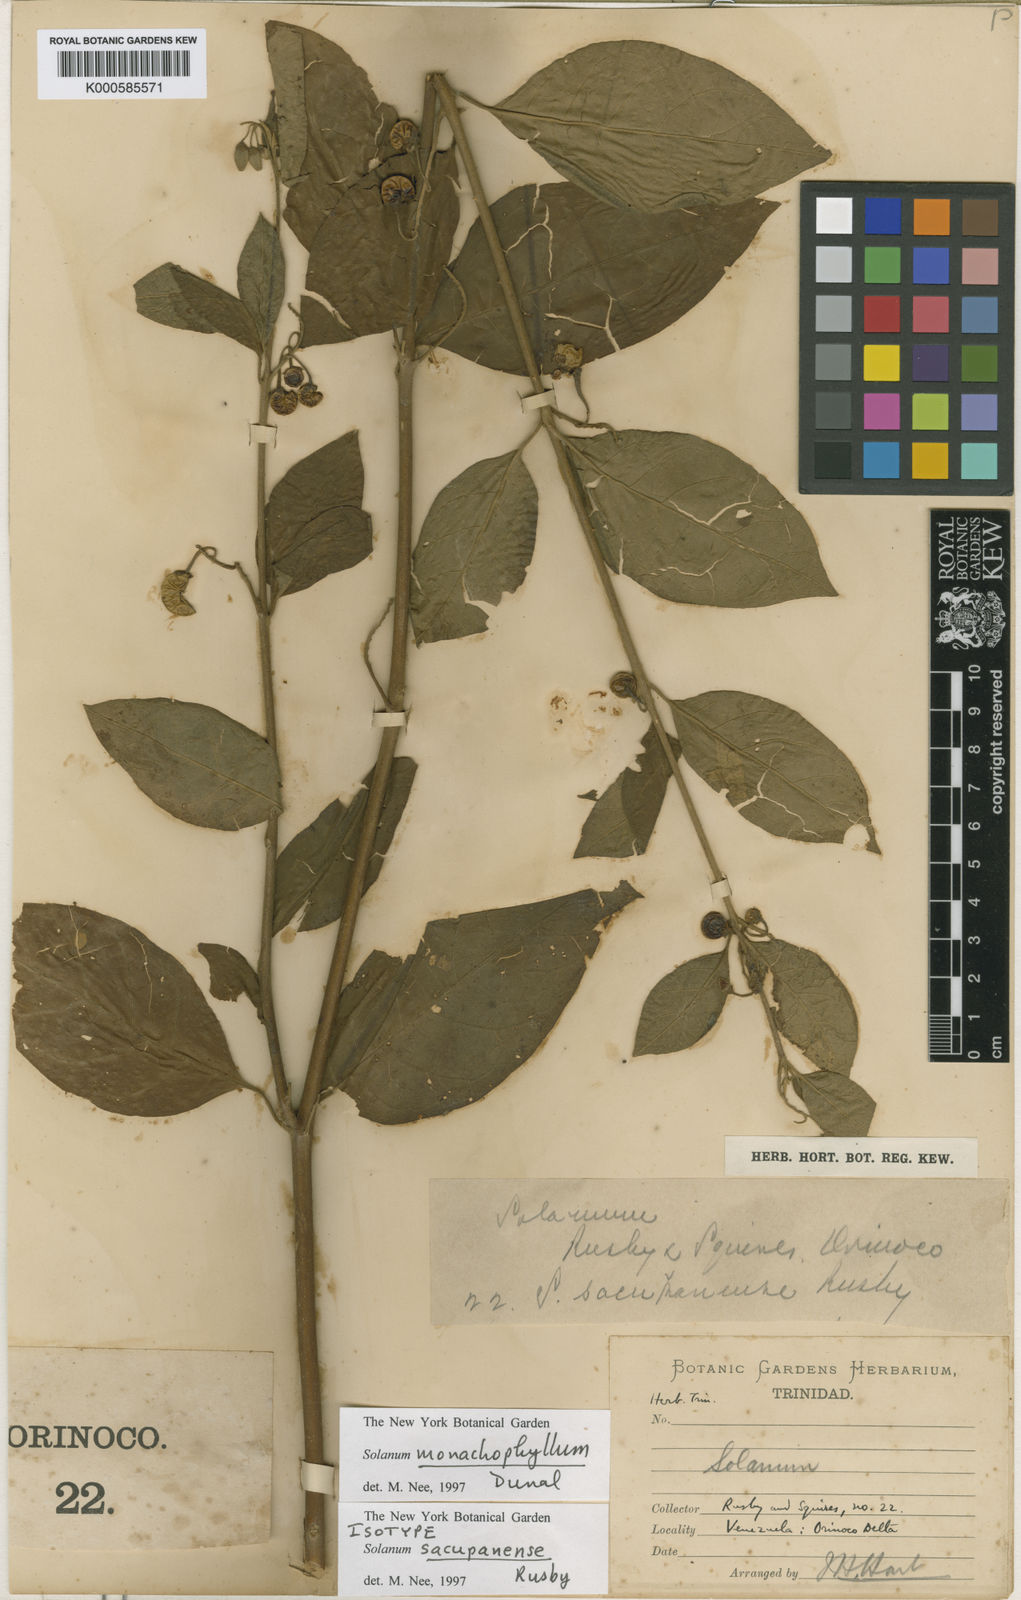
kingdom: Plantae
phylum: Tracheophyta
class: Magnoliopsida
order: Solanales
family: Solanaceae
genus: Solanum
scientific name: Solanum monachophyllum
